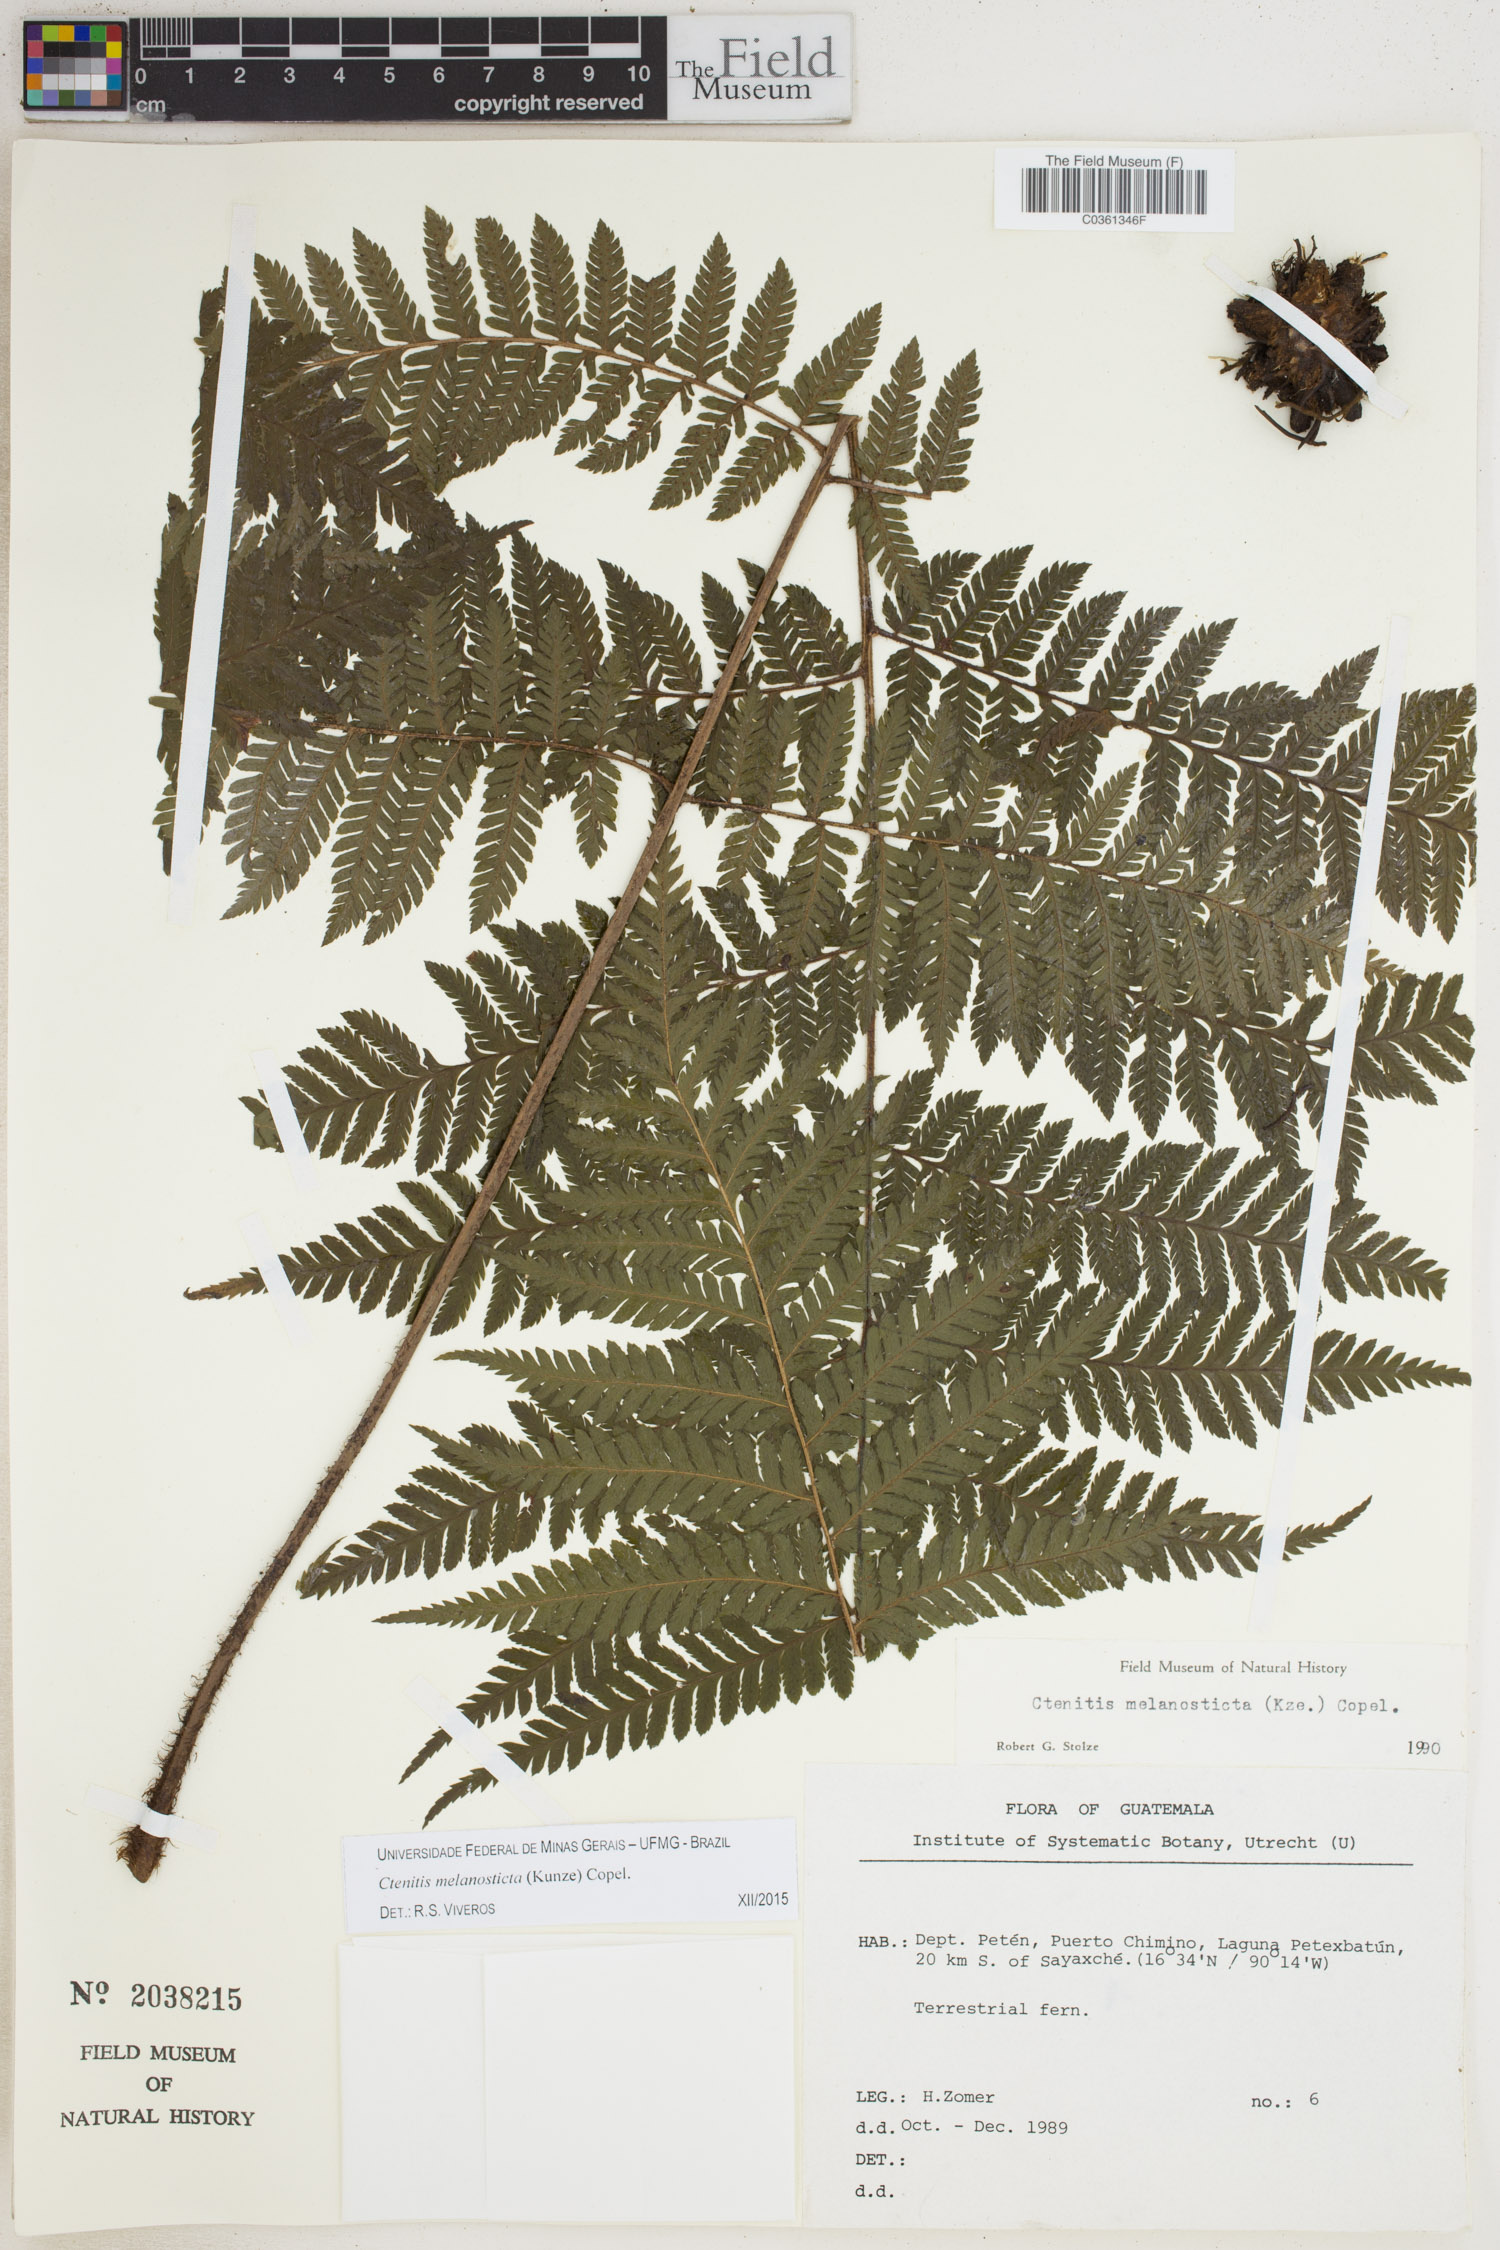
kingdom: Plantae
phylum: Tracheophyta
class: Polypodiopsida
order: Polypodiales
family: Dryopteridaceae
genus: Ctenitis
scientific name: Ctenitis melanosticta
